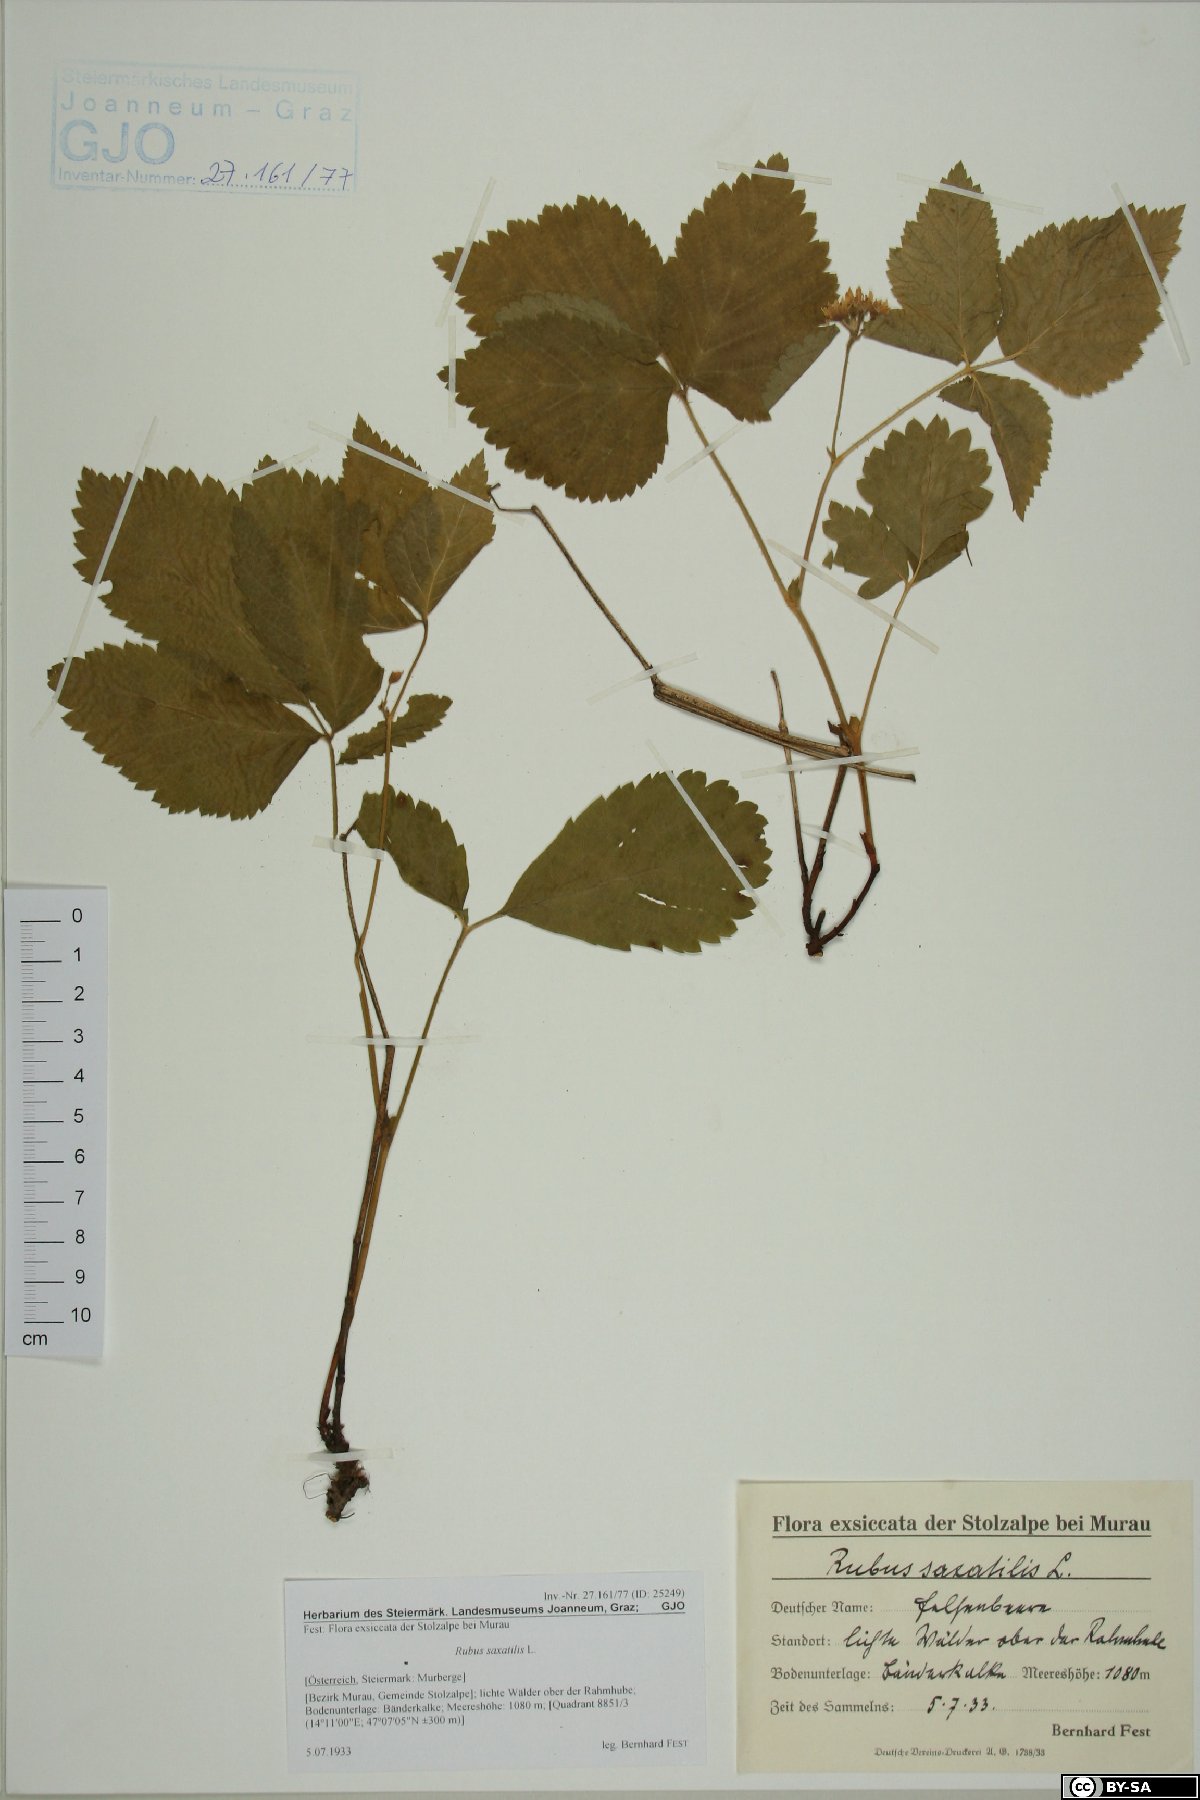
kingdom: Plantae
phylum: Tracheophyta
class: Magnoliopsida
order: Rosales
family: Rosaceae
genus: Rubus
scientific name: Rubus saxatilis
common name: Stone bramble
